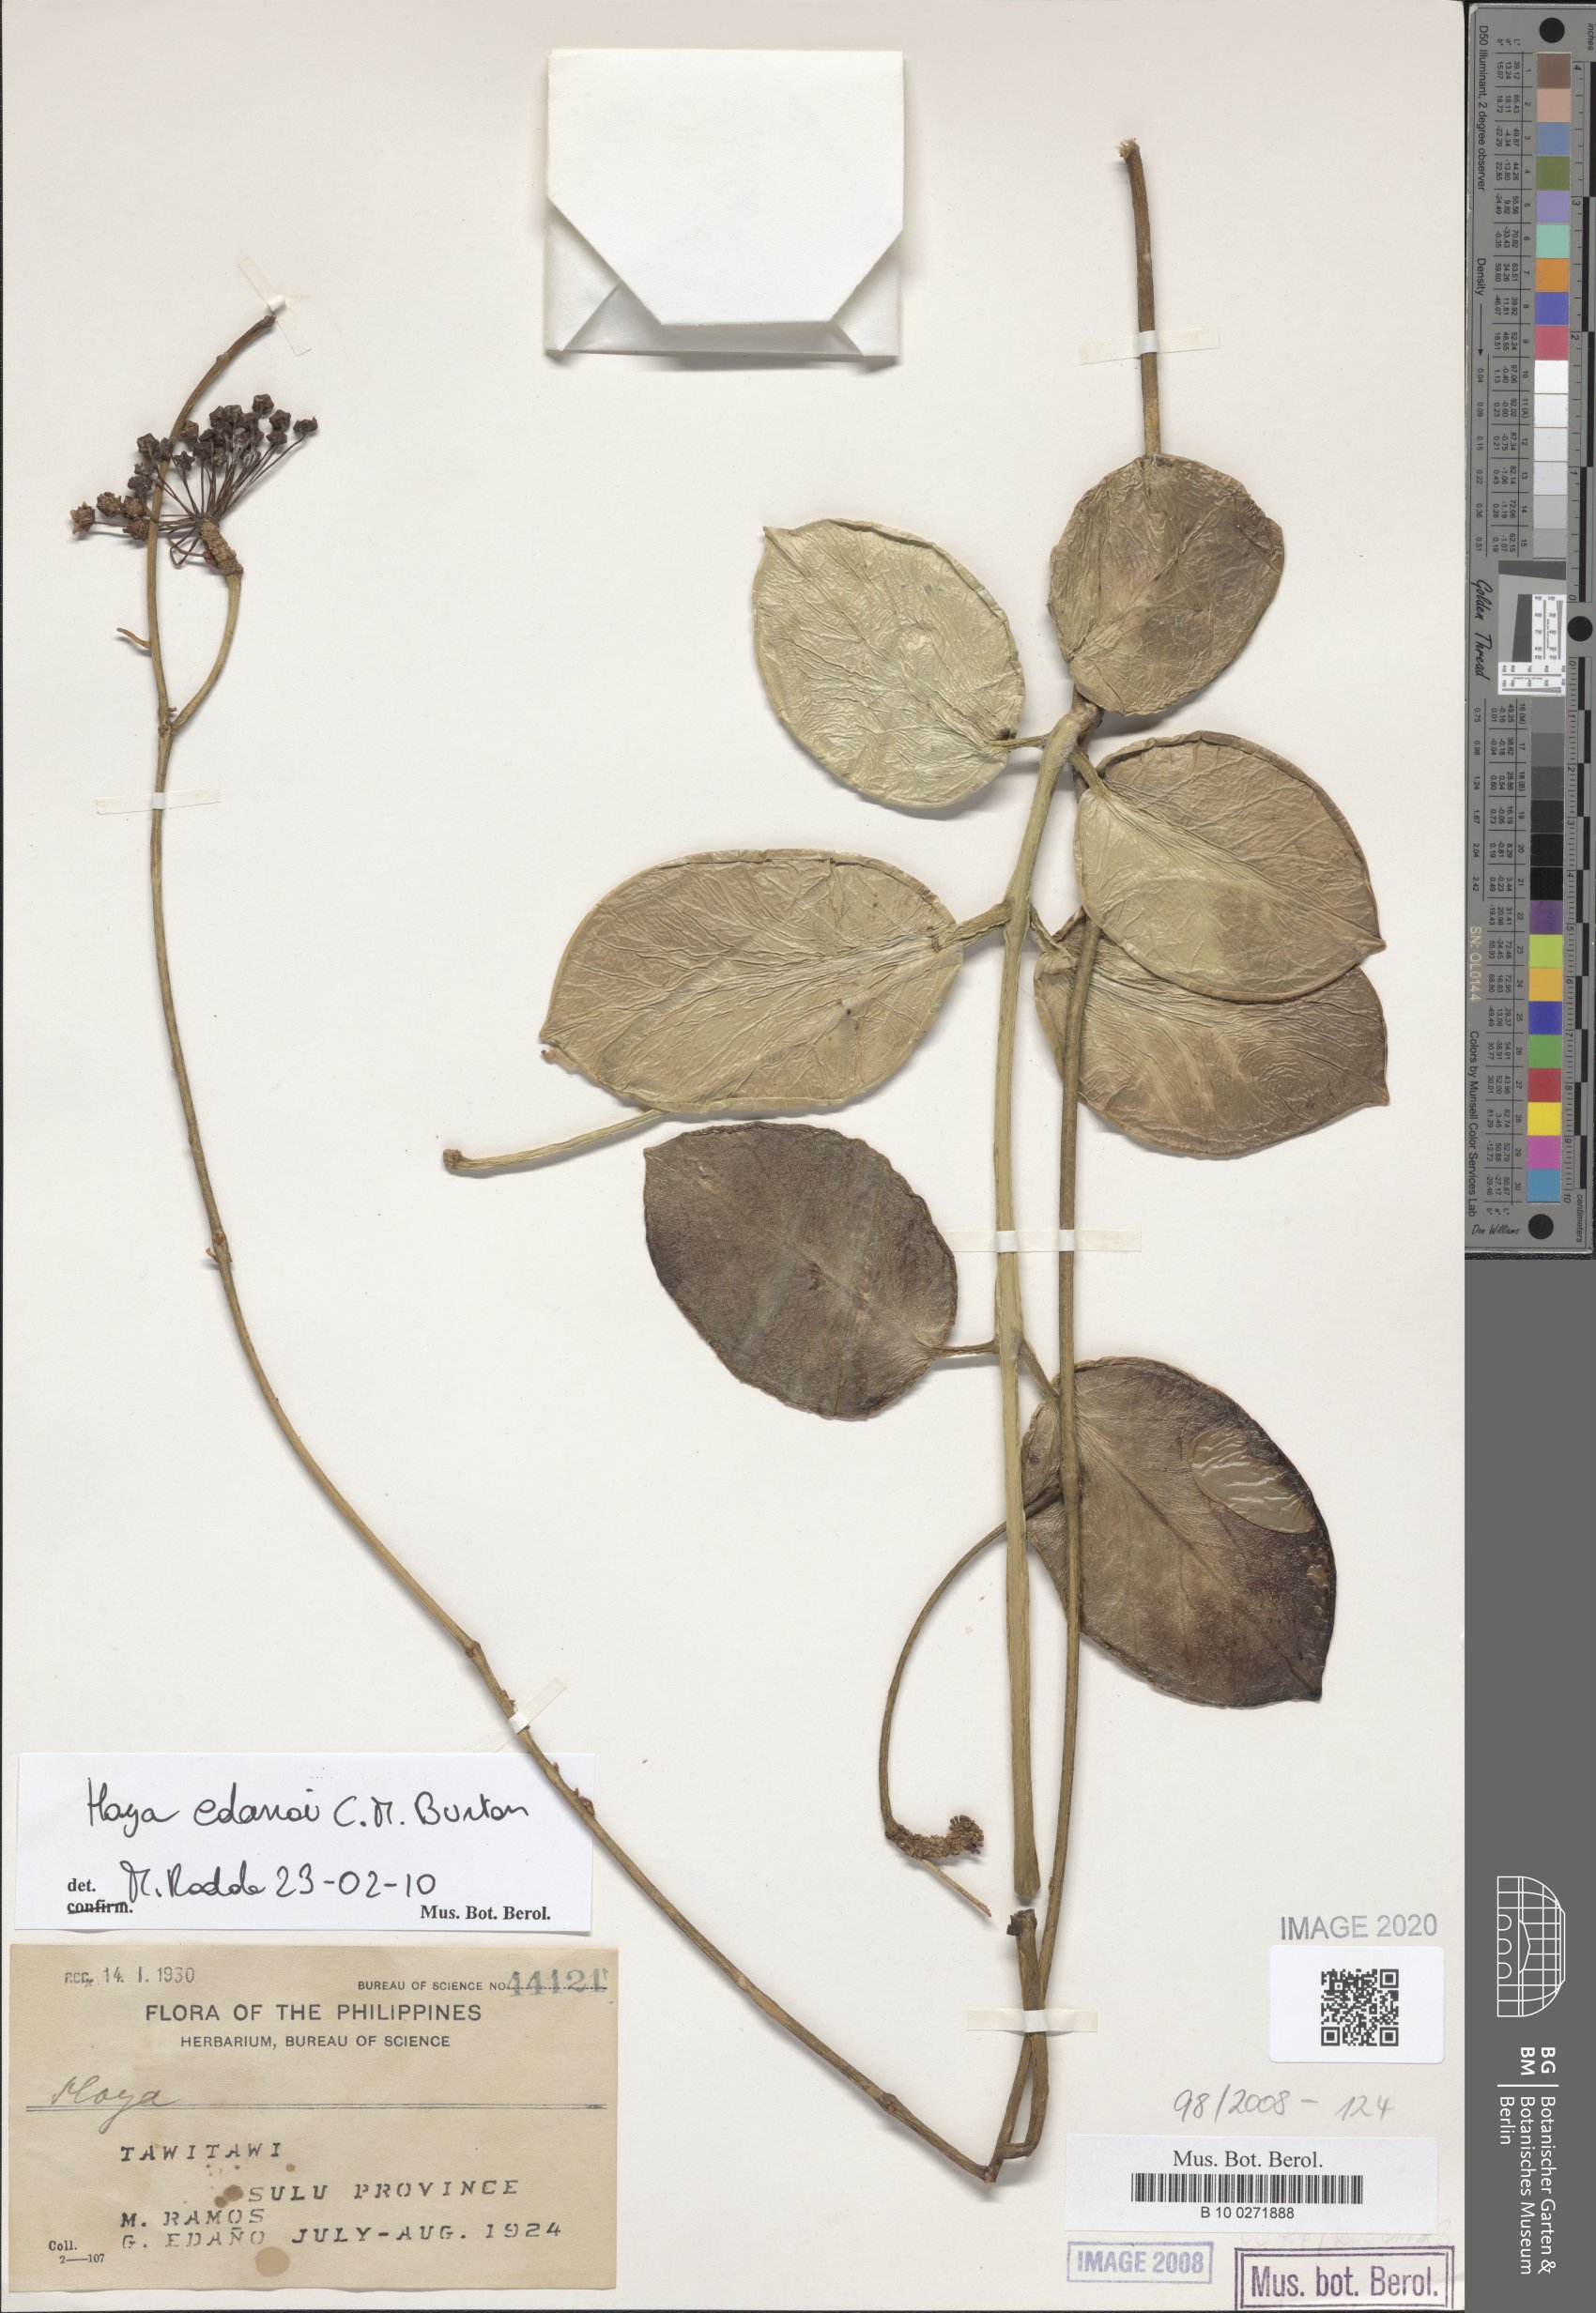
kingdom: Plantae
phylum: Tracheophyta
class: Magnoliopsida
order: Gentianales
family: Apocynaceae
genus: Hoya
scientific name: Hoya
